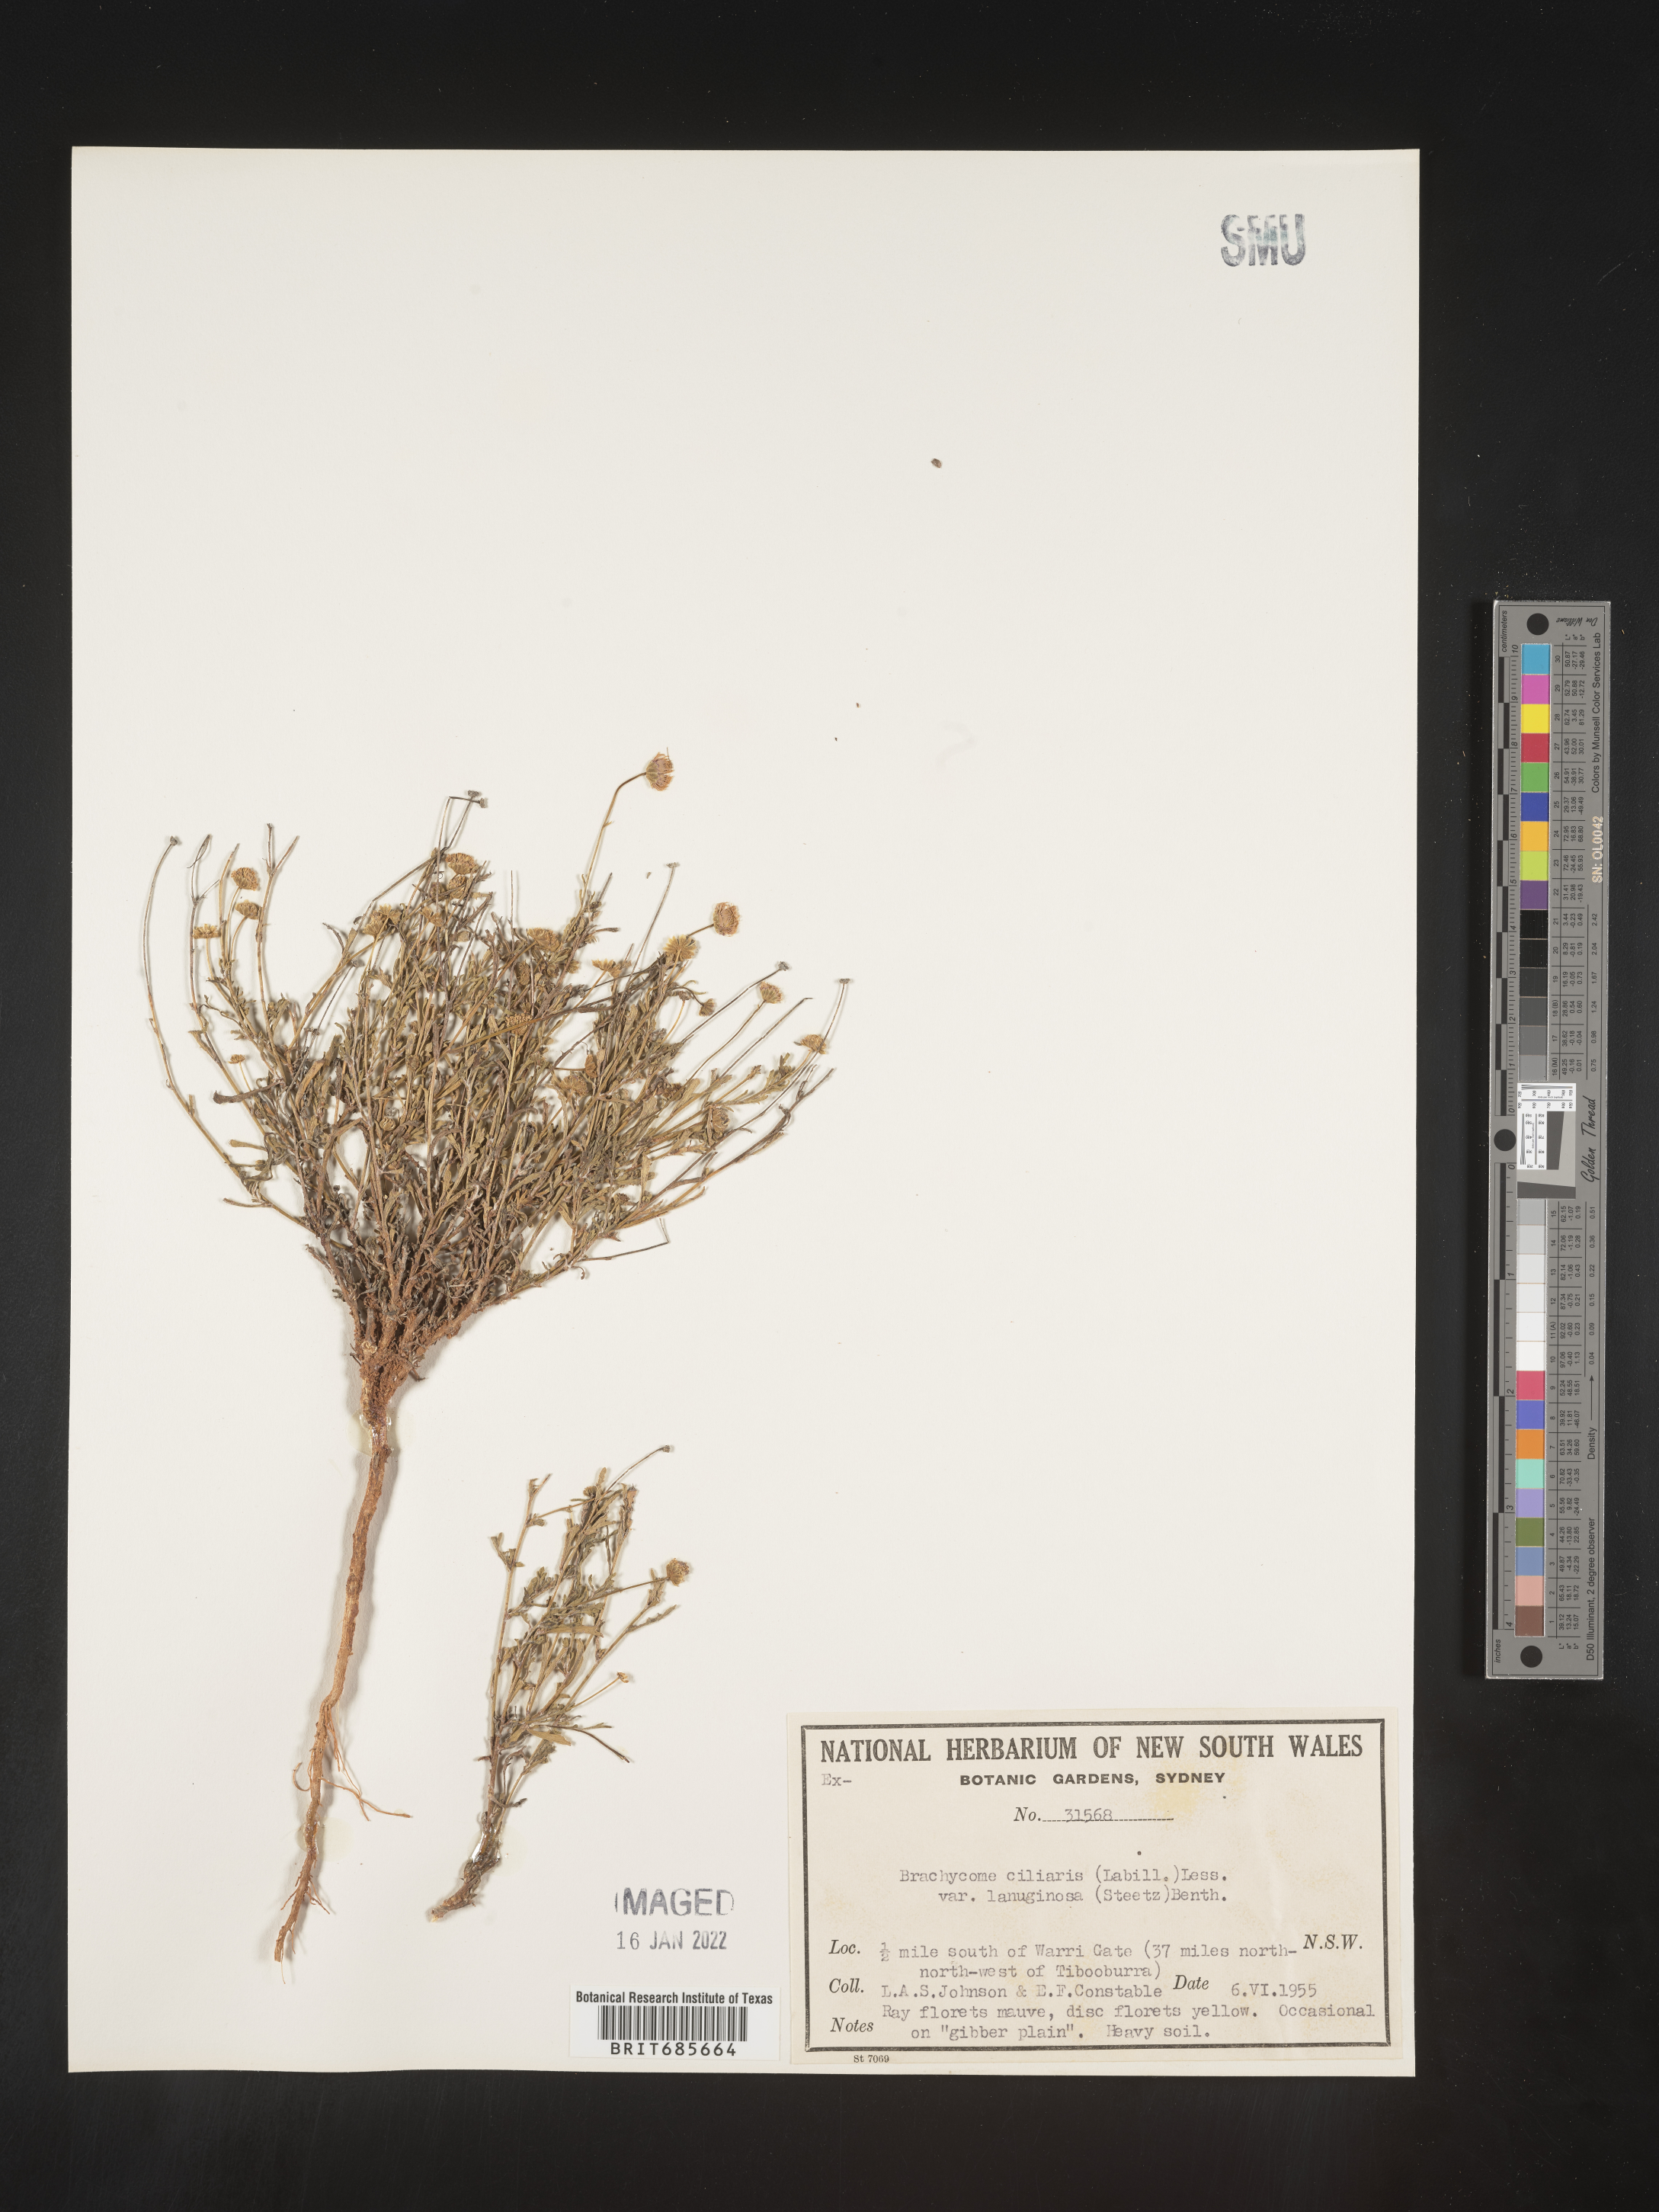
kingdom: Plantae
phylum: Tracheophyta
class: Magnoliopsida
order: Asterales
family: Asteraceae
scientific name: Asteraceae
